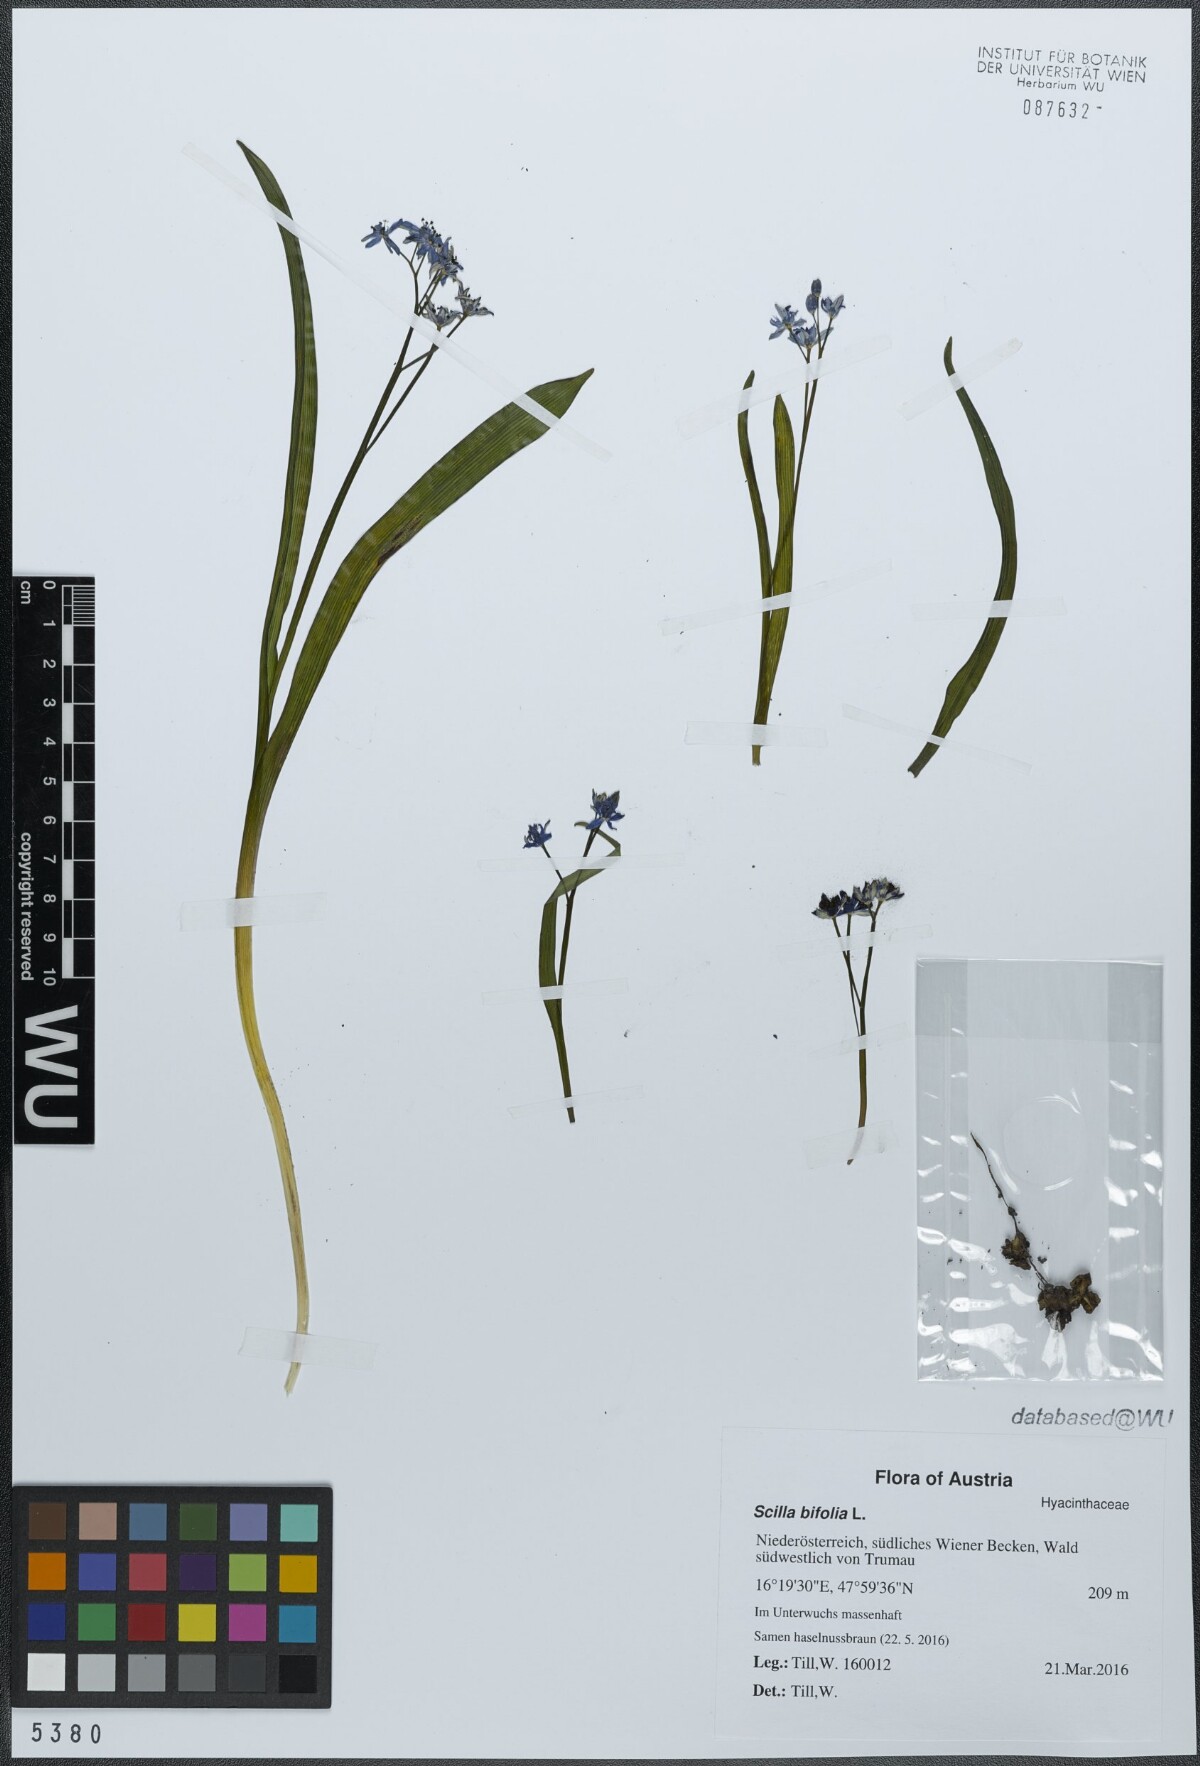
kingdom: Plantae
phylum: Tracheophyta
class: Liliopsida
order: Asparagales
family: Asparagaceae
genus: Scilla
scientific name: Scilla bifolia
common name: Alpine squill
